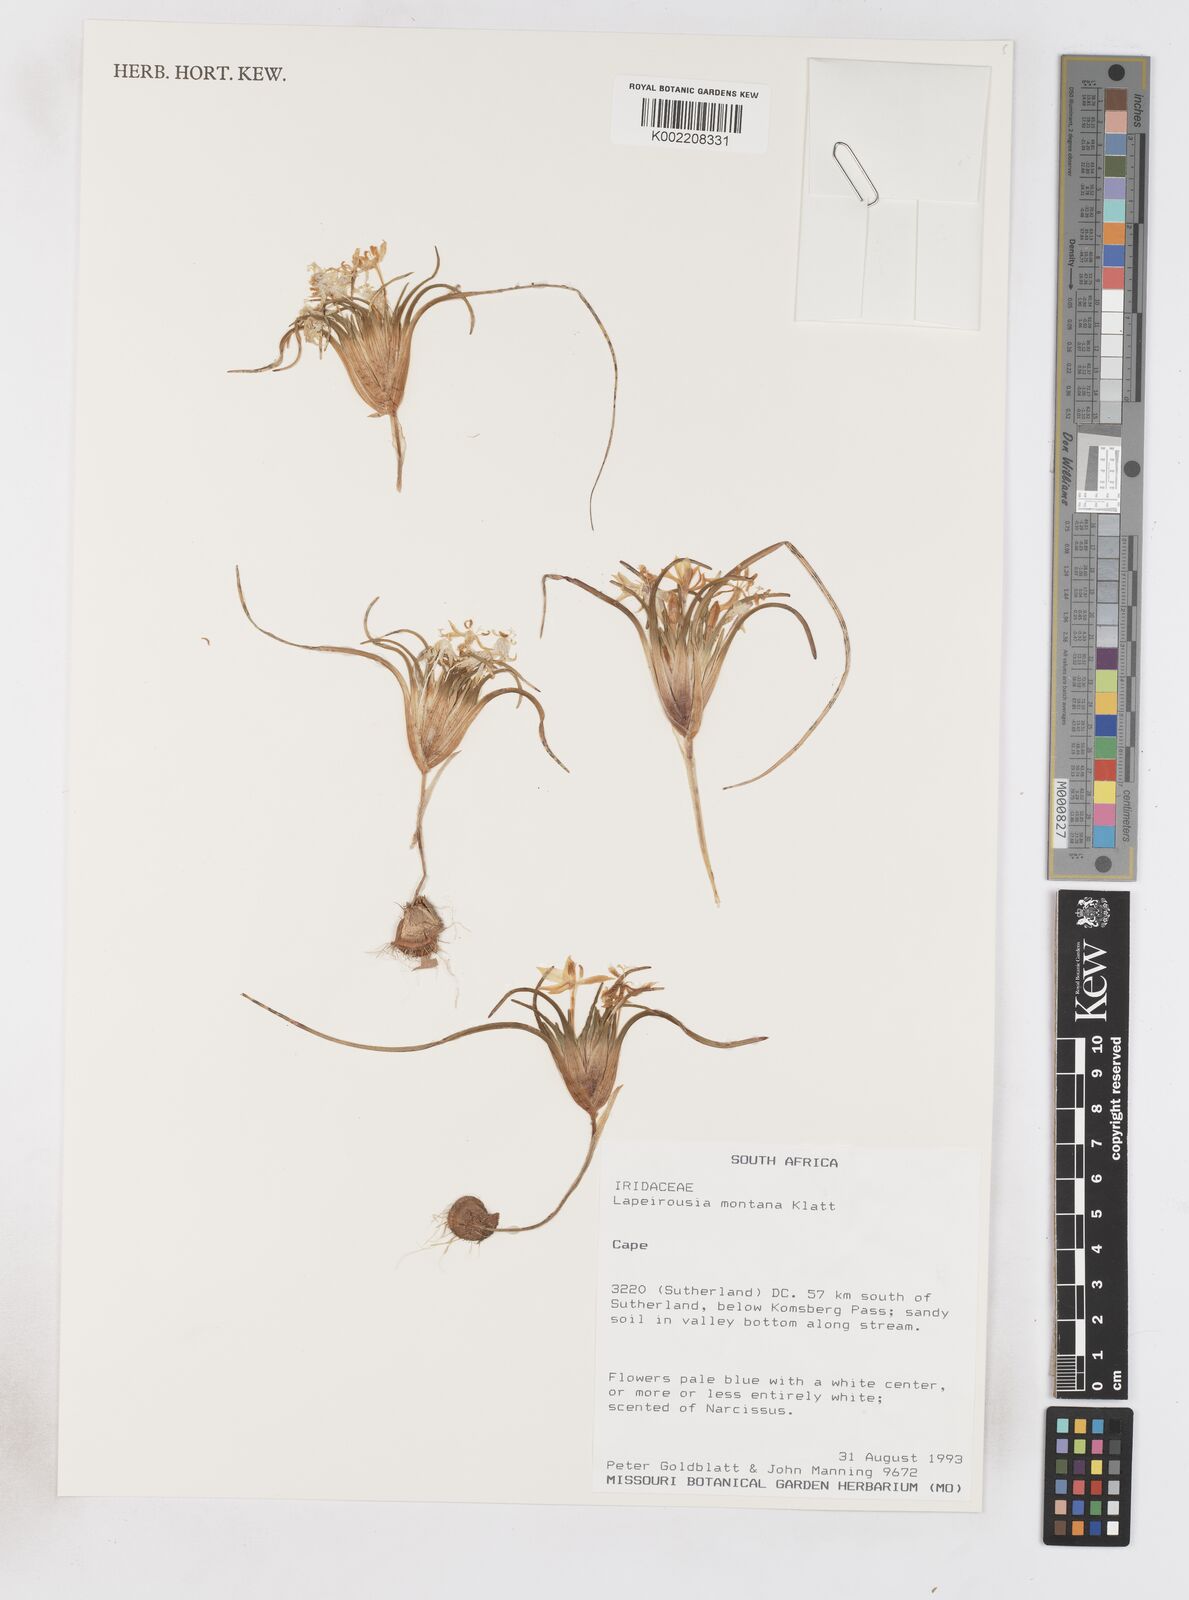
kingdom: Plantae
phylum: Tracheophyta
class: Liliopsida
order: Asparagales
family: Iridaceae
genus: Lapeirousia
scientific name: Lapeirousia montana
